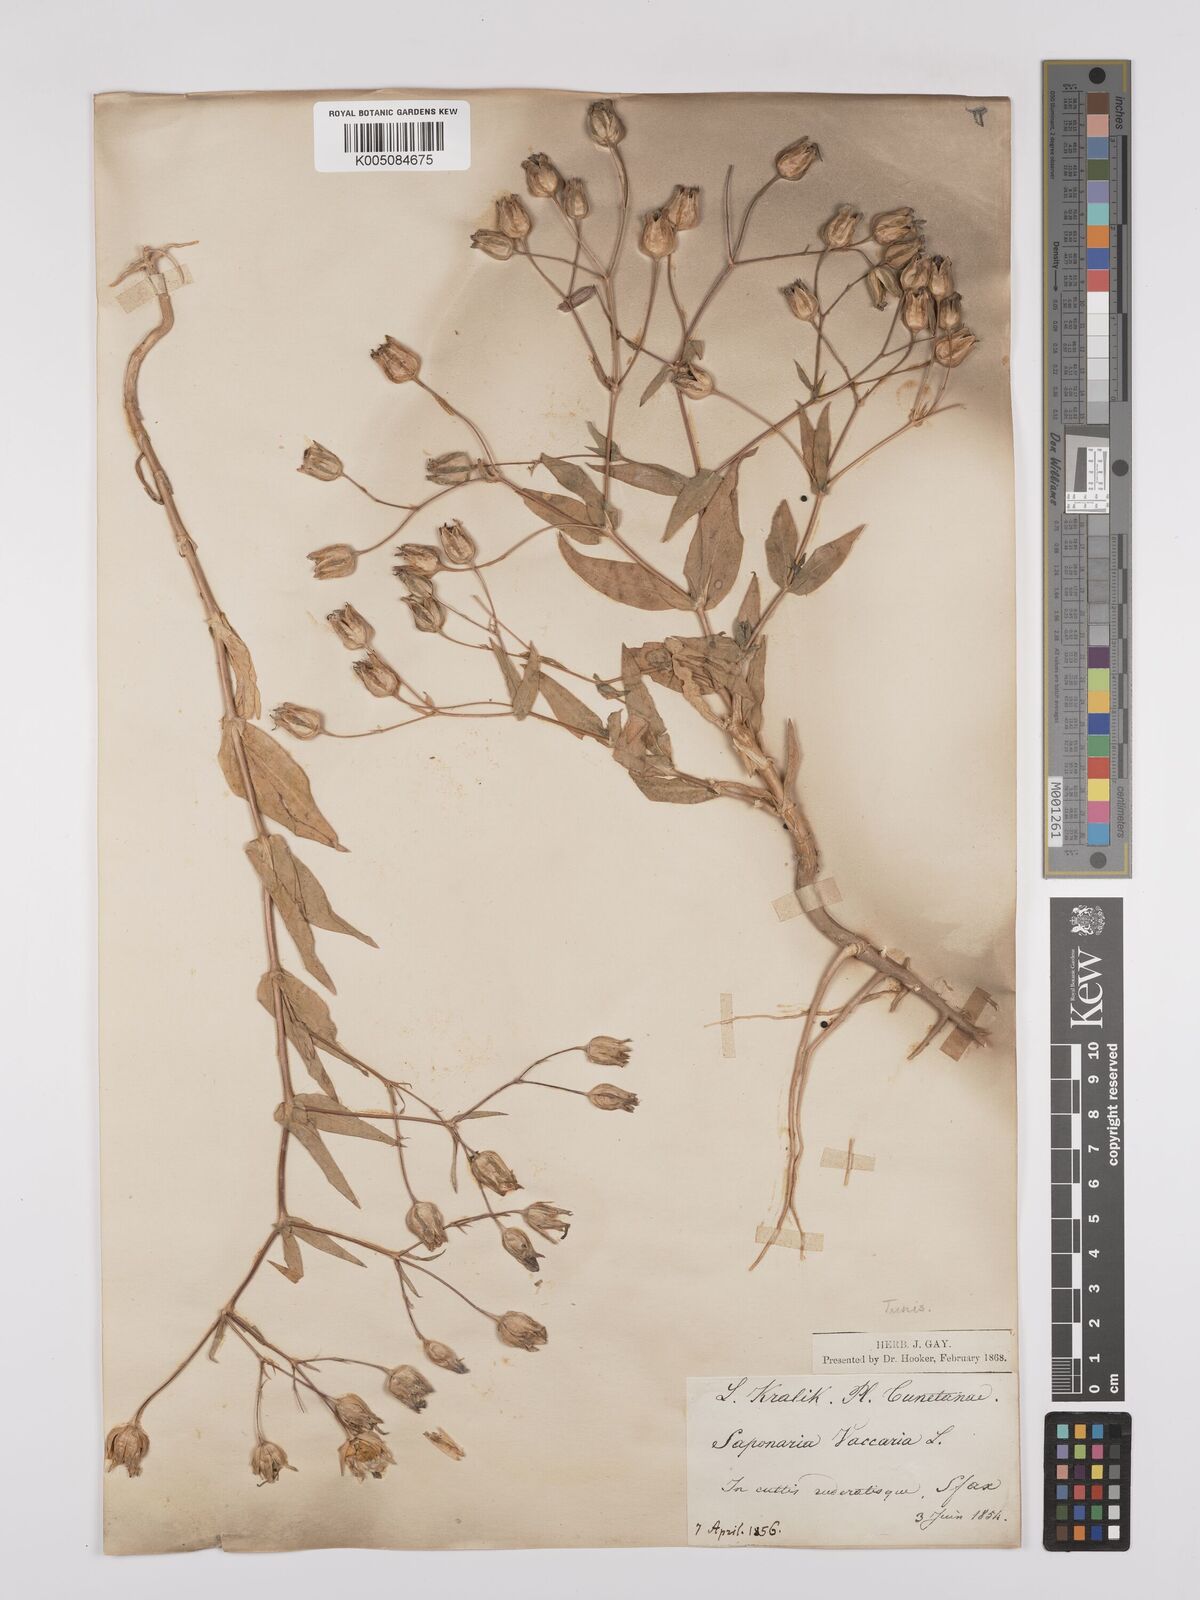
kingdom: Plantae
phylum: Tracheophyta
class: Magnoliopsida
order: Caryophyllales
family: Caryophyllaceae
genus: Gypsophila
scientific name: Gypsophila vaccaria
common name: Cow soapwort
